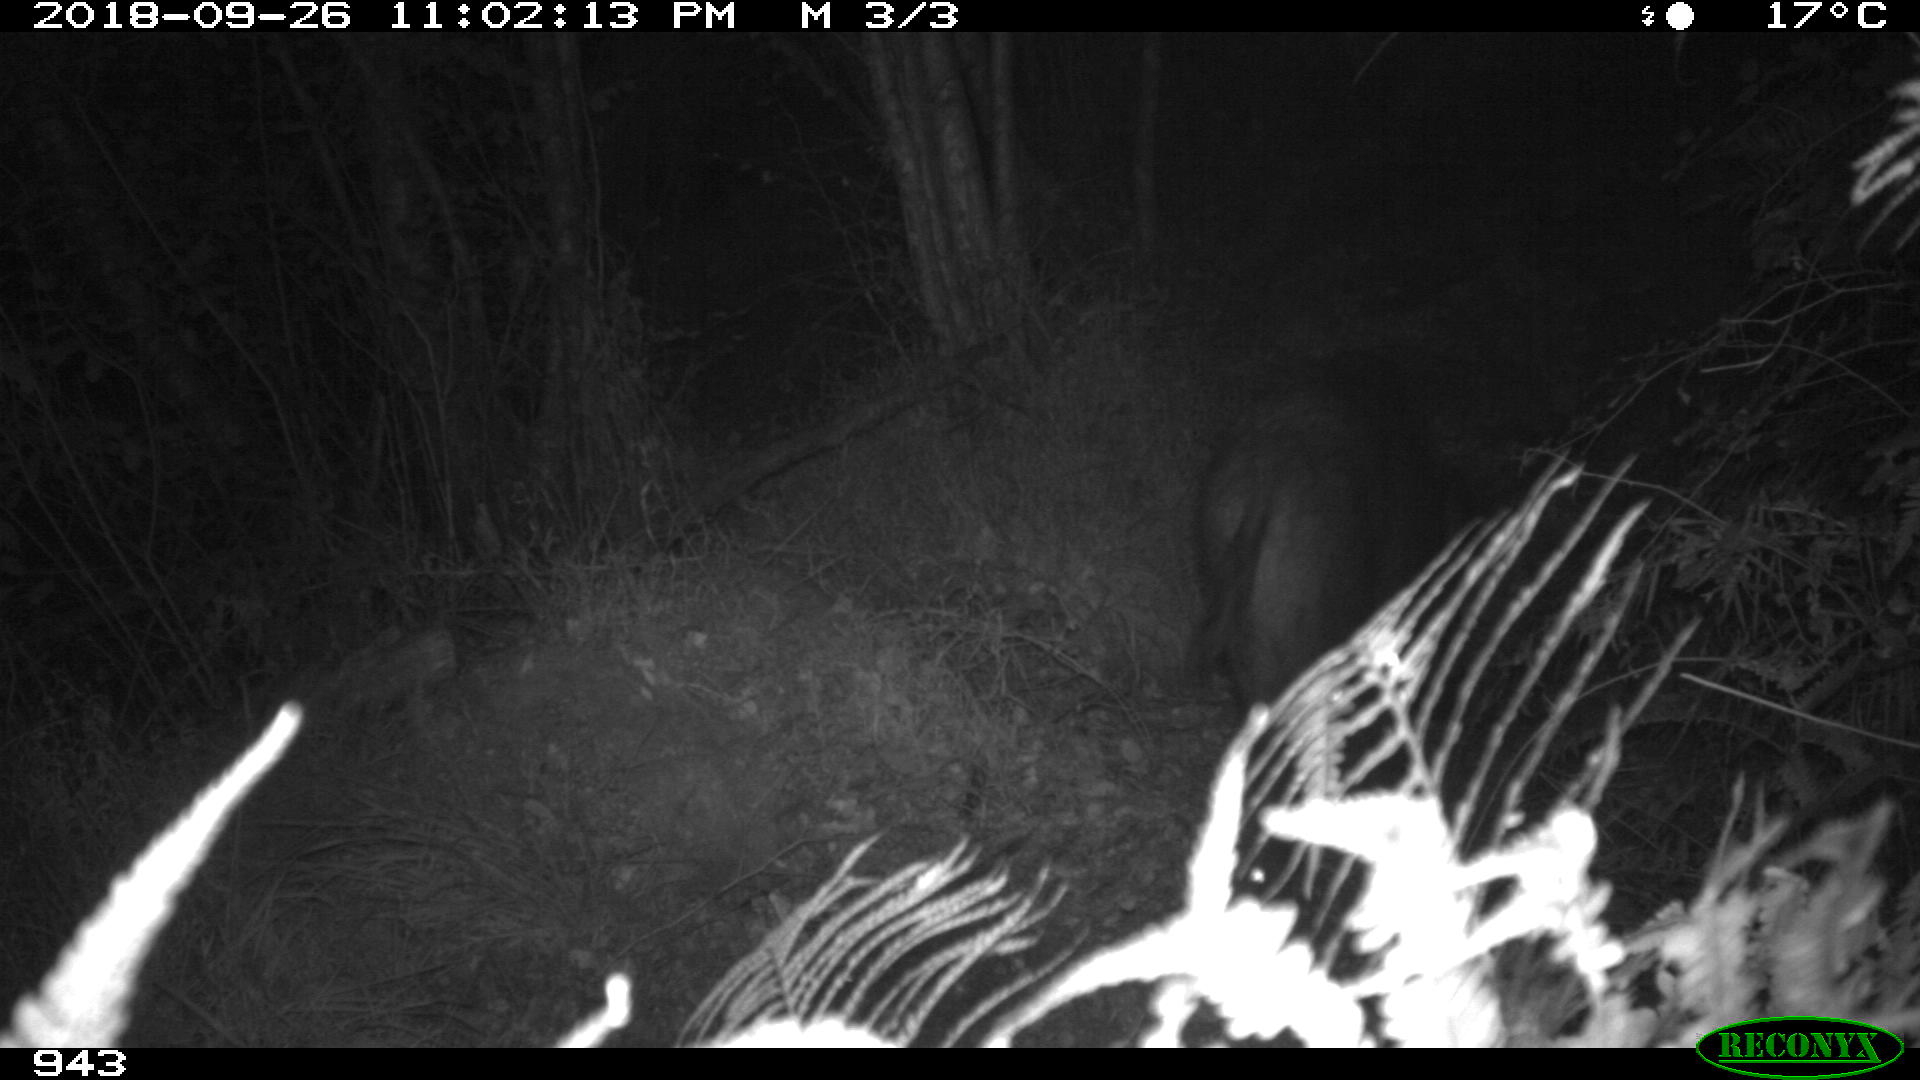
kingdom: Animalia
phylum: Chordata
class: Mammalia
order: Artiodactyla
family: Suidae
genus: Sus
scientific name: Sus scrofa
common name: Wild boar
